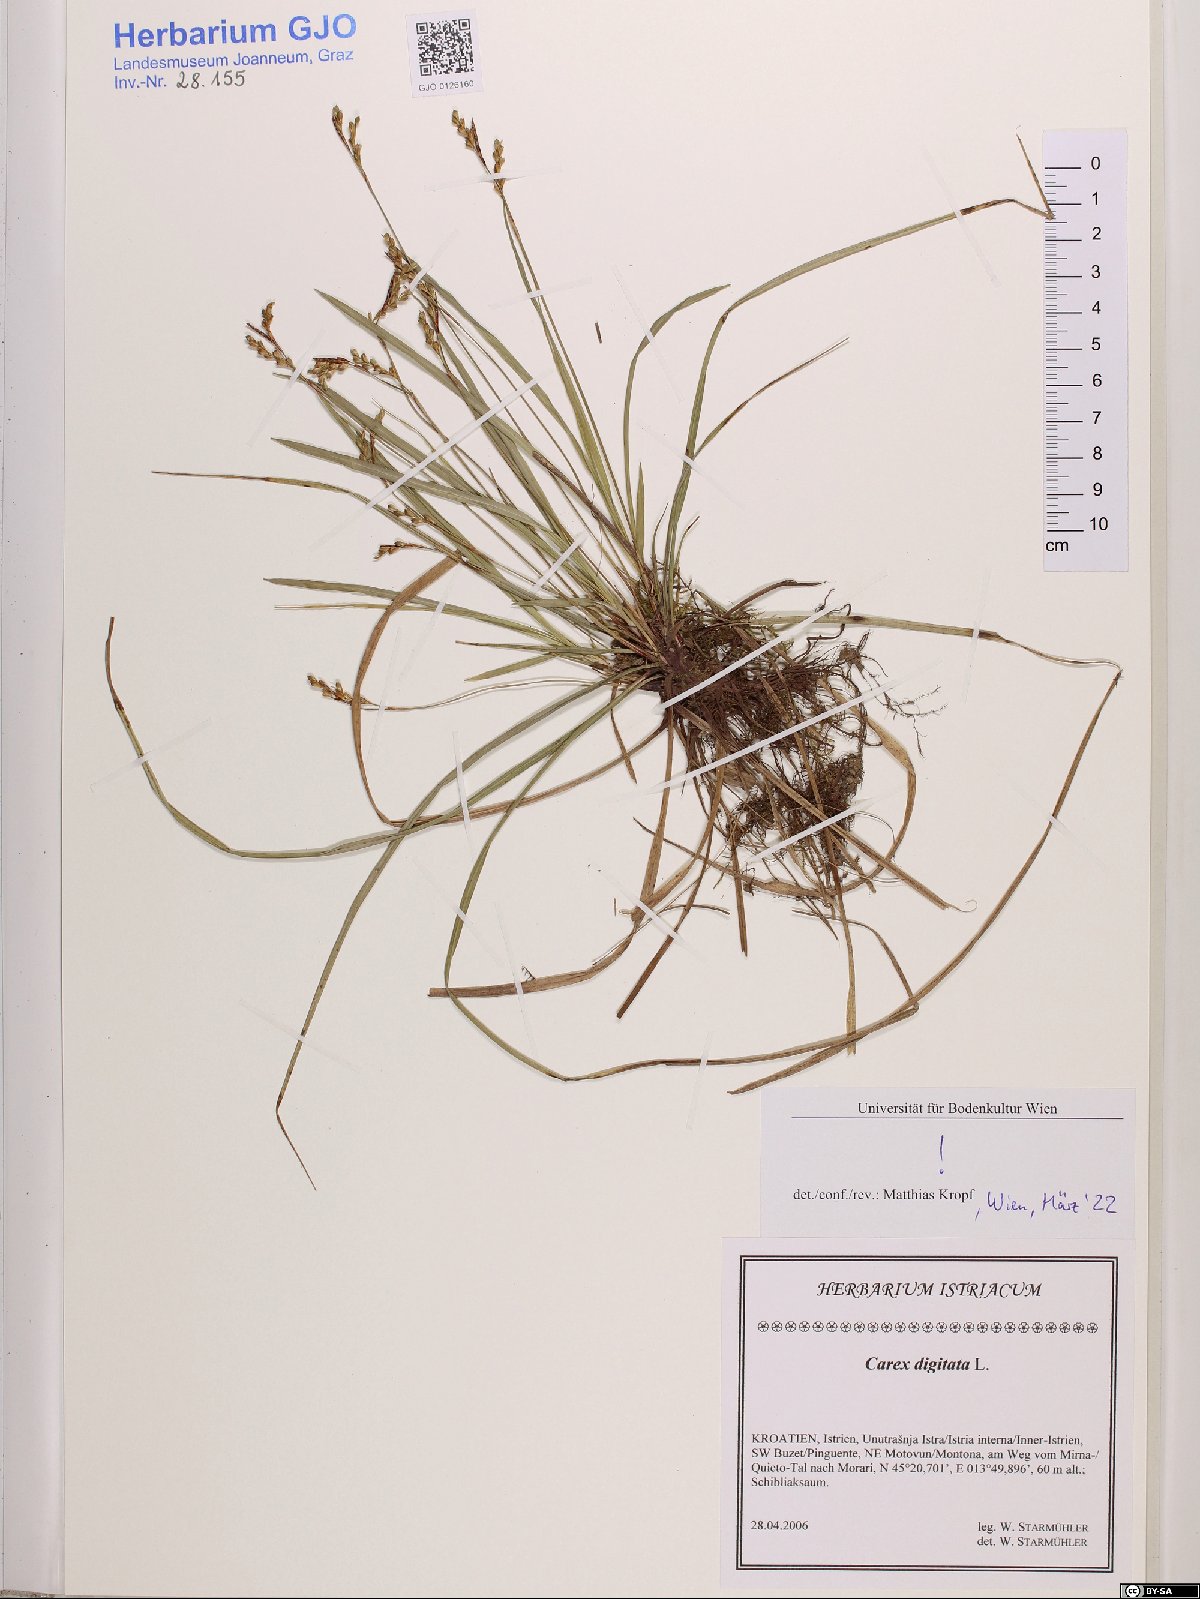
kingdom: Plantae
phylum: Tracheophyta
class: Liliopsida
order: Poales
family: Cyperaceae
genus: Carex
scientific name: Carex digitata
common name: Fingered sedge
